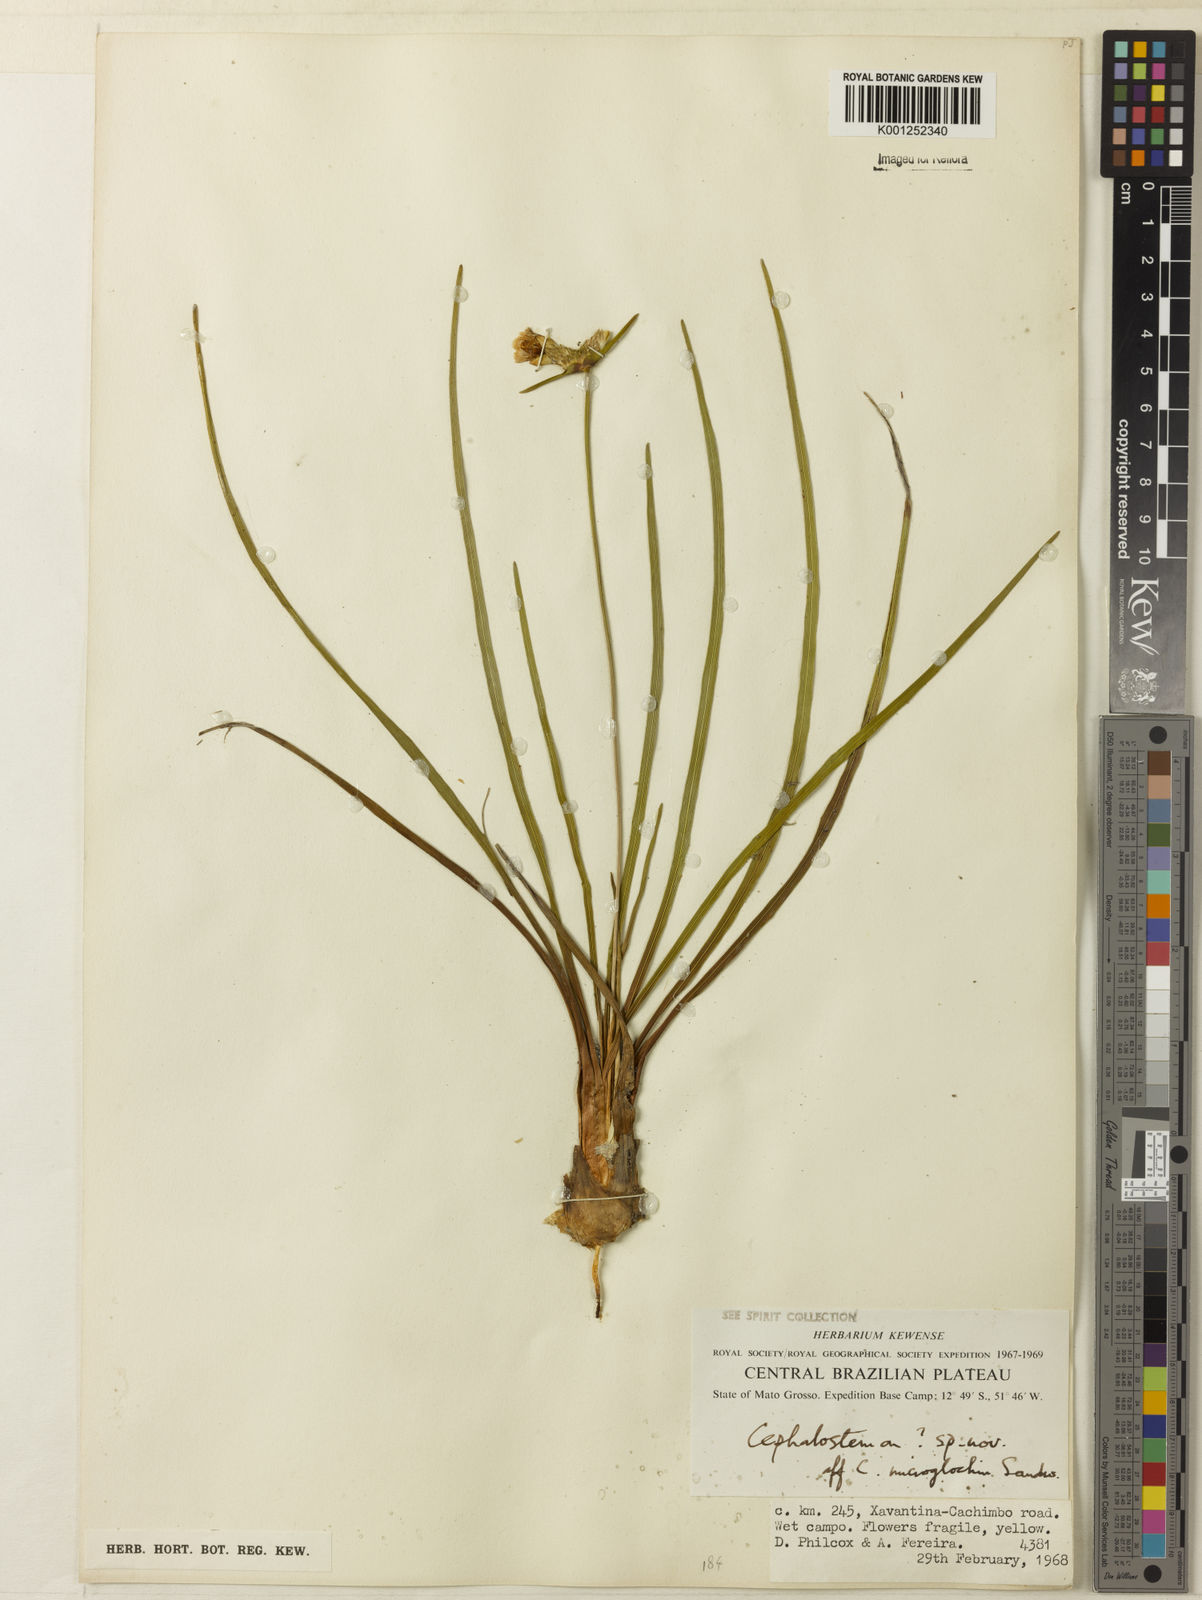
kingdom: Plantae
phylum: Tracheophyta
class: Liliopsida
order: Poales
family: Rapateaceae
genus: Cephalostemon
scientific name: Cephalostemon microglochin
